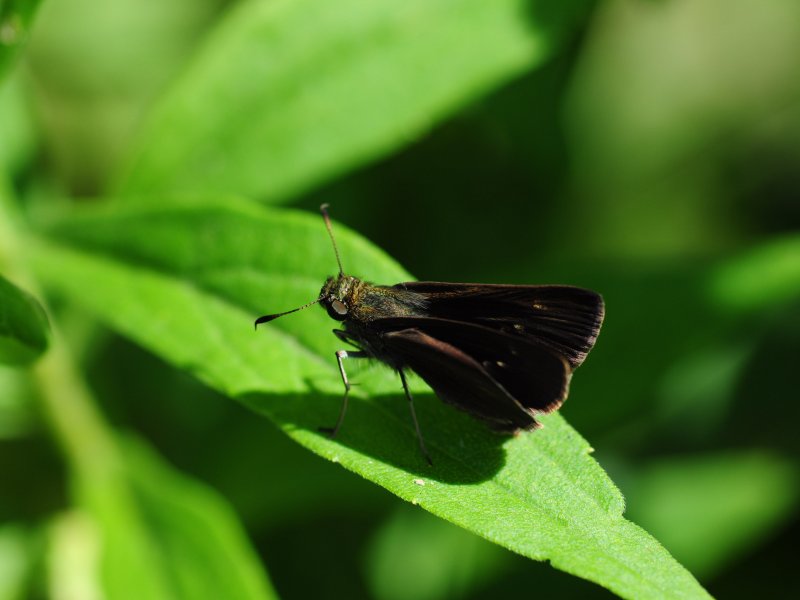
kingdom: Animalia
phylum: Arthropoda
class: Insecta
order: Lepidoptera
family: Hesperiidae
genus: Euphyes
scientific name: Euphyes vestris
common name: Dun Skipper
